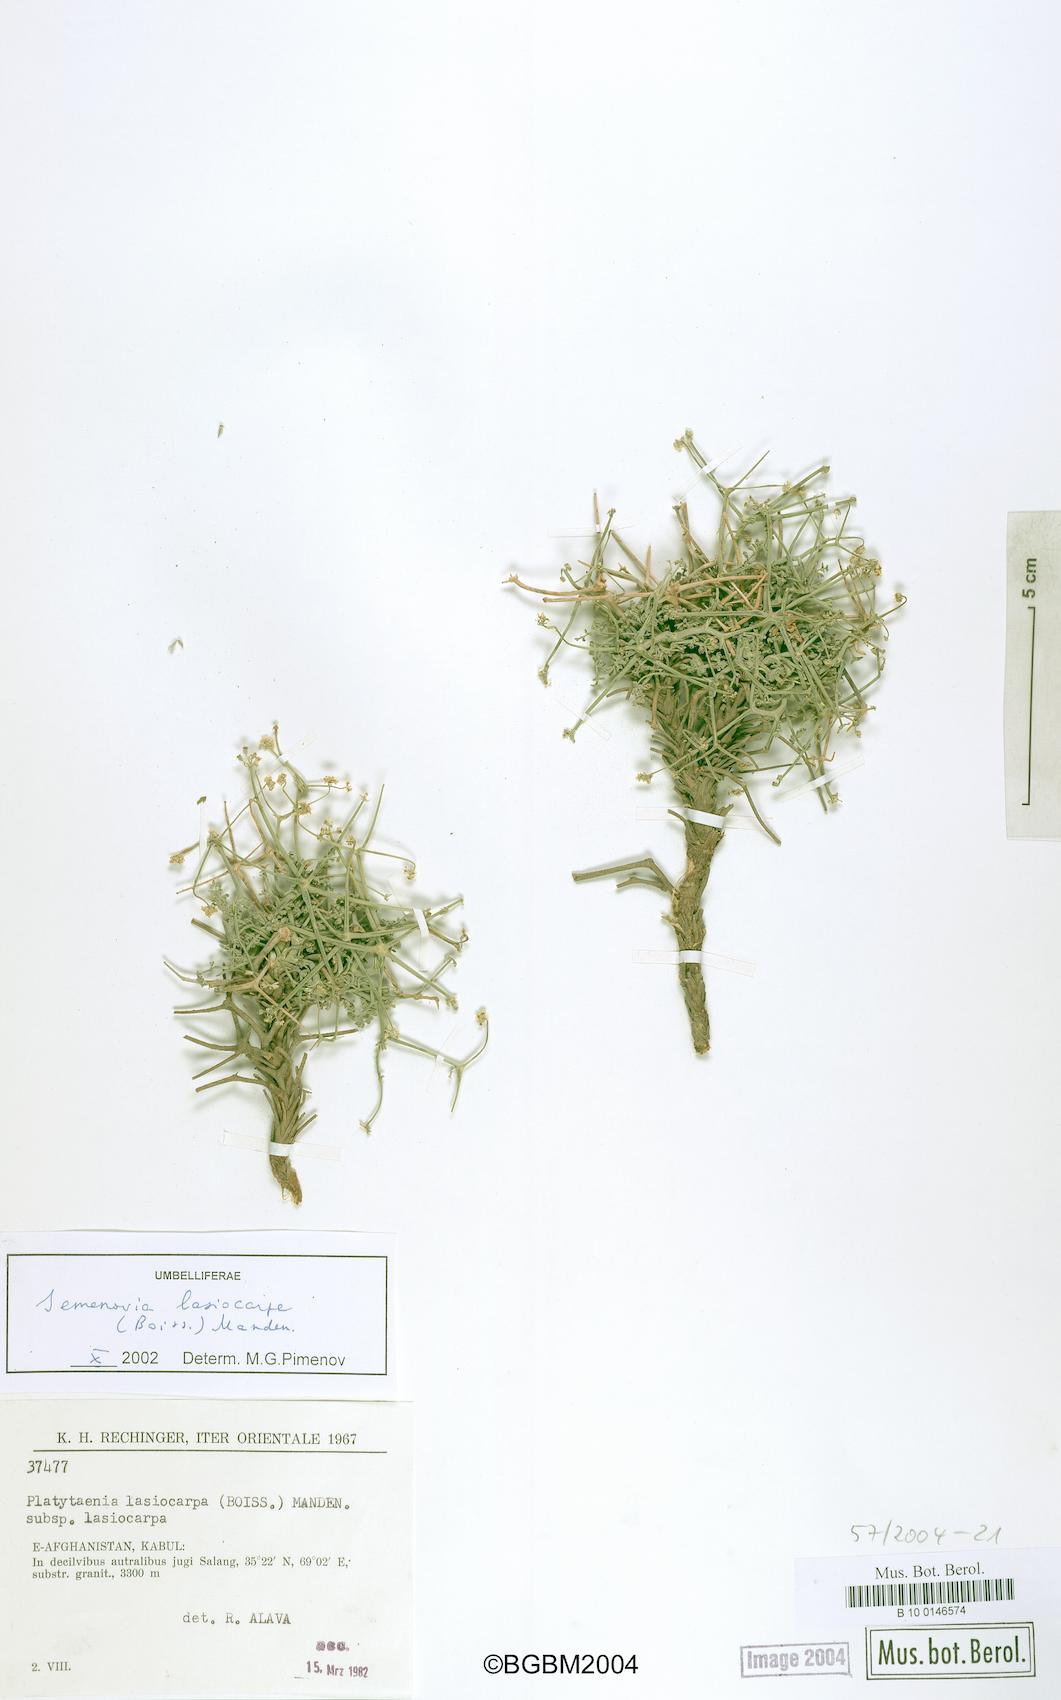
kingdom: Plantae
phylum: Tracheophyta
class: Magnoliopsida
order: Apiales
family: Apiaceae
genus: Semenovia
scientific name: Semenovia lasiocarpa
